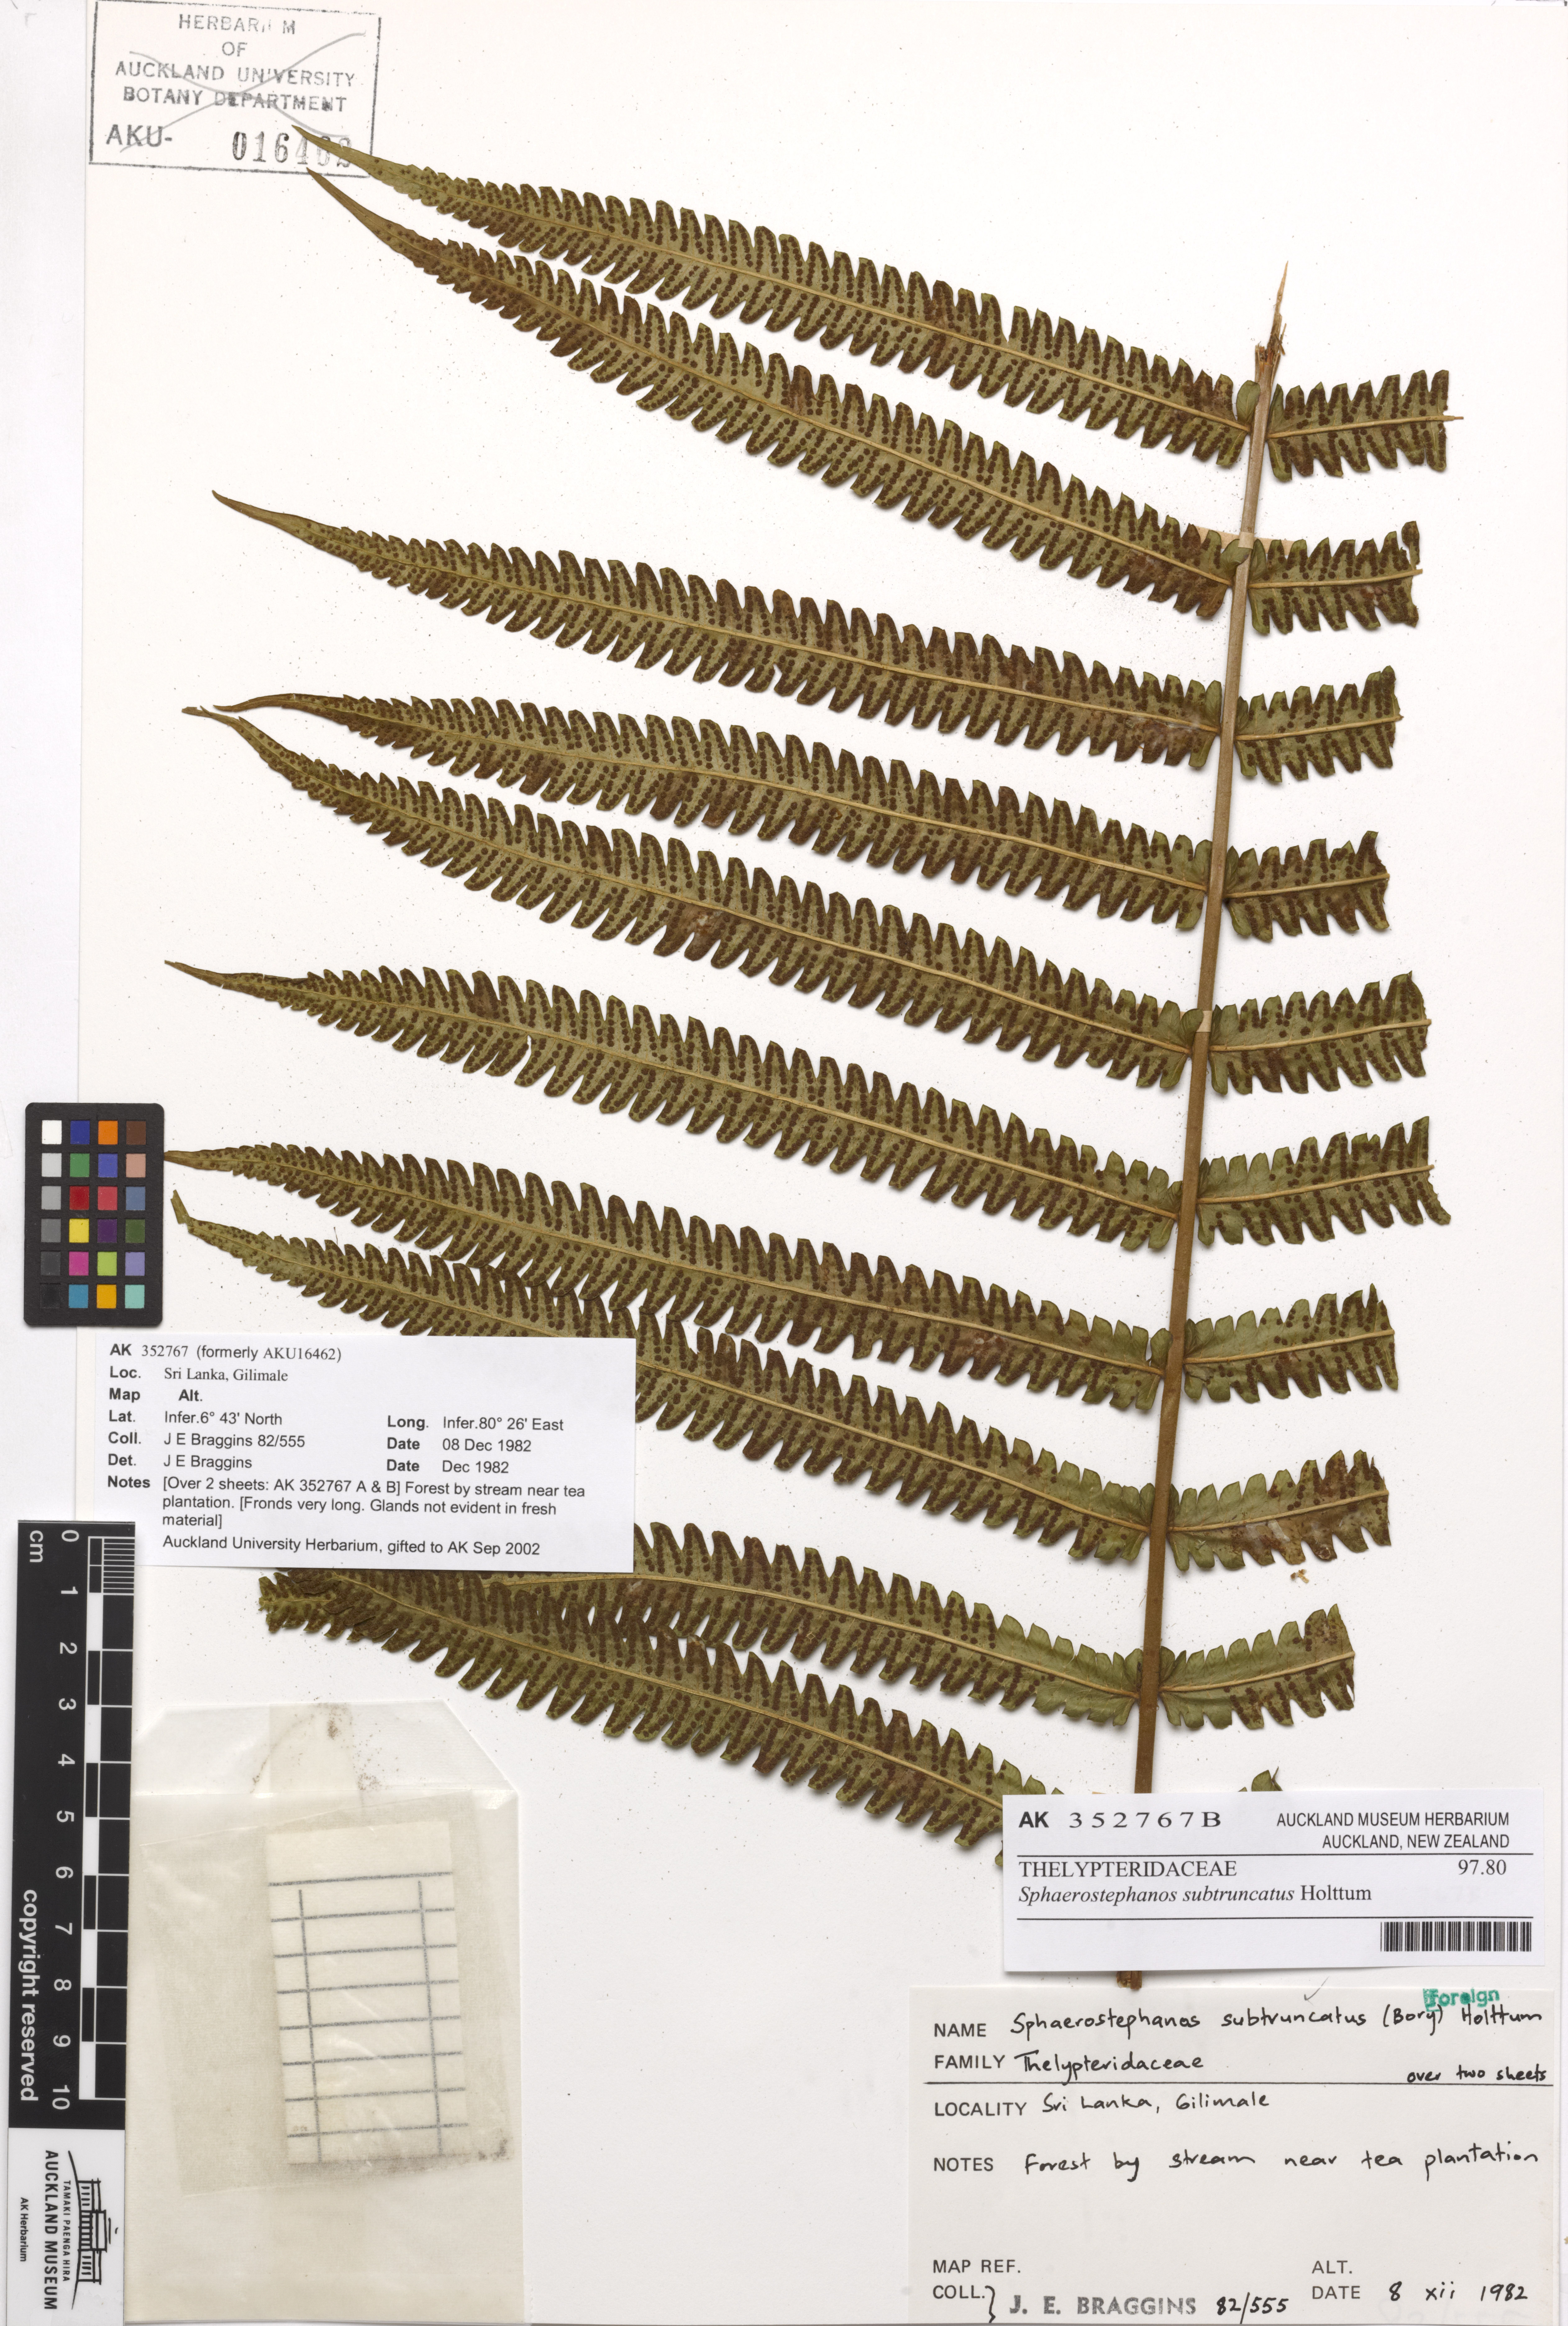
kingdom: Plantae
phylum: Tracheophyta
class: Polypodiopsida
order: Polypodiales
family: Thelypteridaceae
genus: Sphaerostephanos
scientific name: Sphaerostephanos subtruncatus
